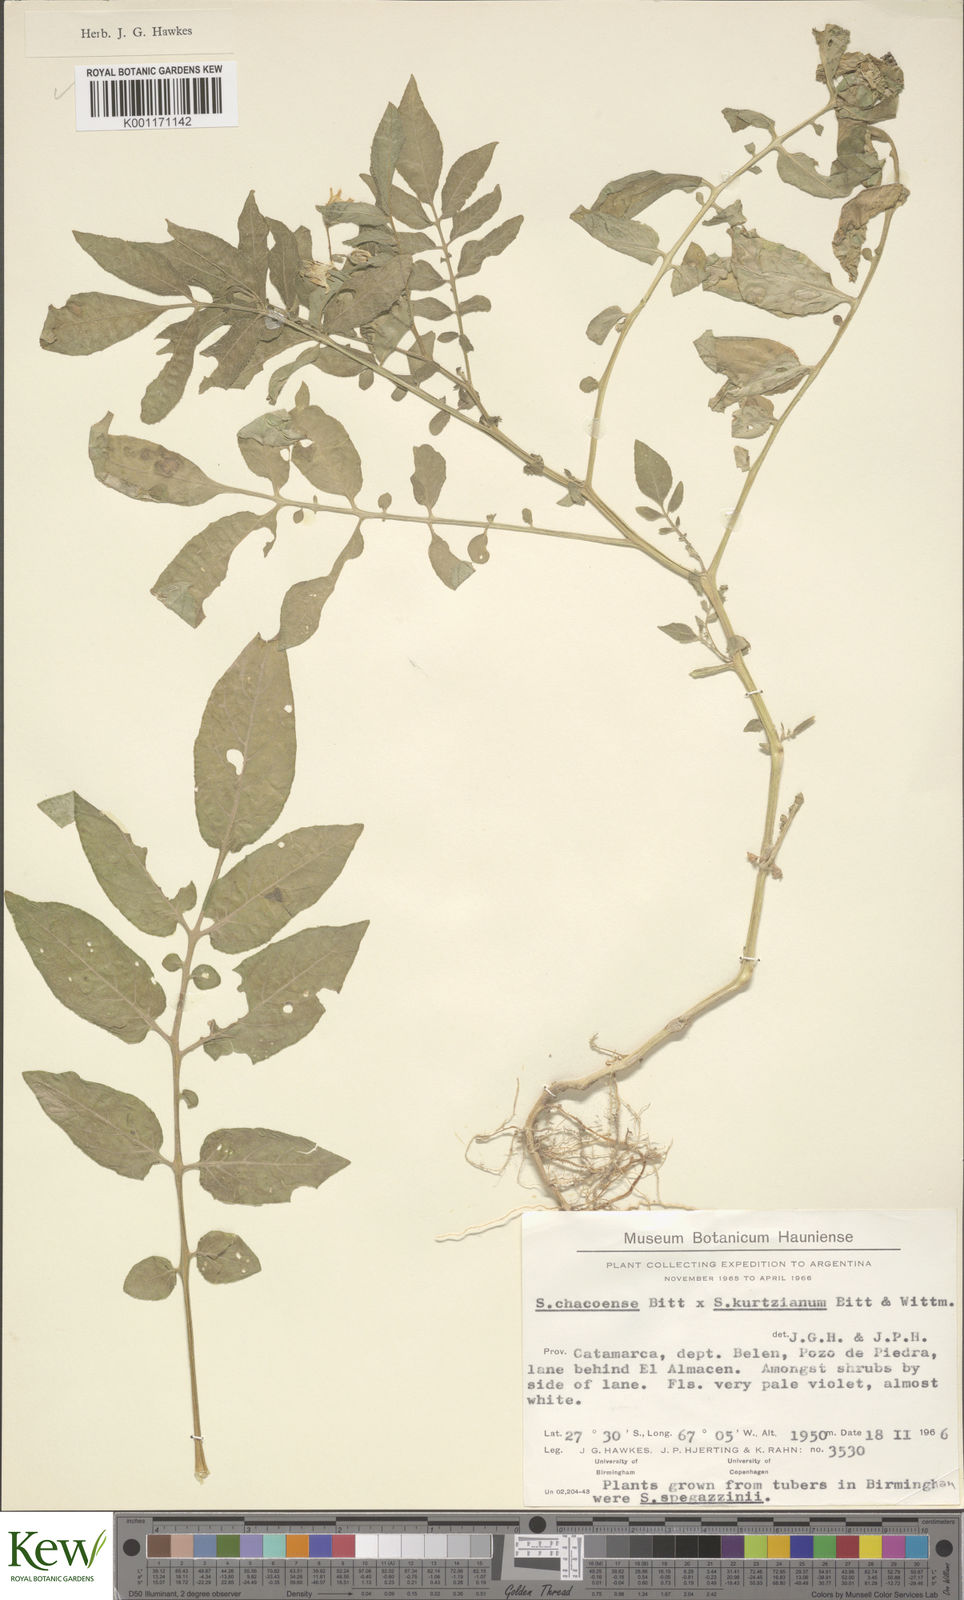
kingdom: Plantae
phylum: Tracheophyta
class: Magnoliopsida
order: Solanales
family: Solanaceae
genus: Solanum
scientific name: Solanum chacoense
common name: Chaco potato
